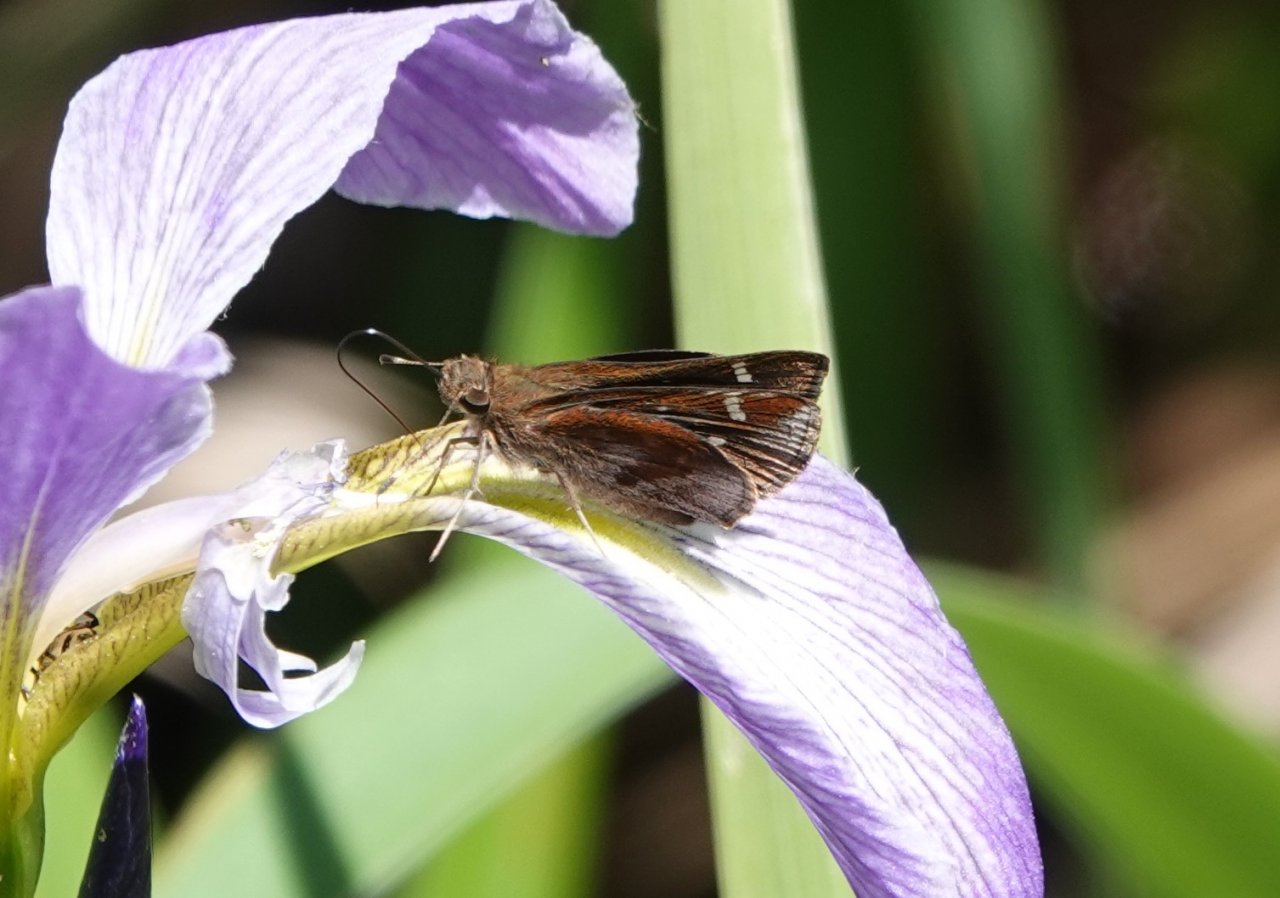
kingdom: Animalia
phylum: Arthropoda
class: Insecta
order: Lepidoptera
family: Hesperiidae
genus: Lerema
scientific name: Lerema accius
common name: Clouded Skipper
